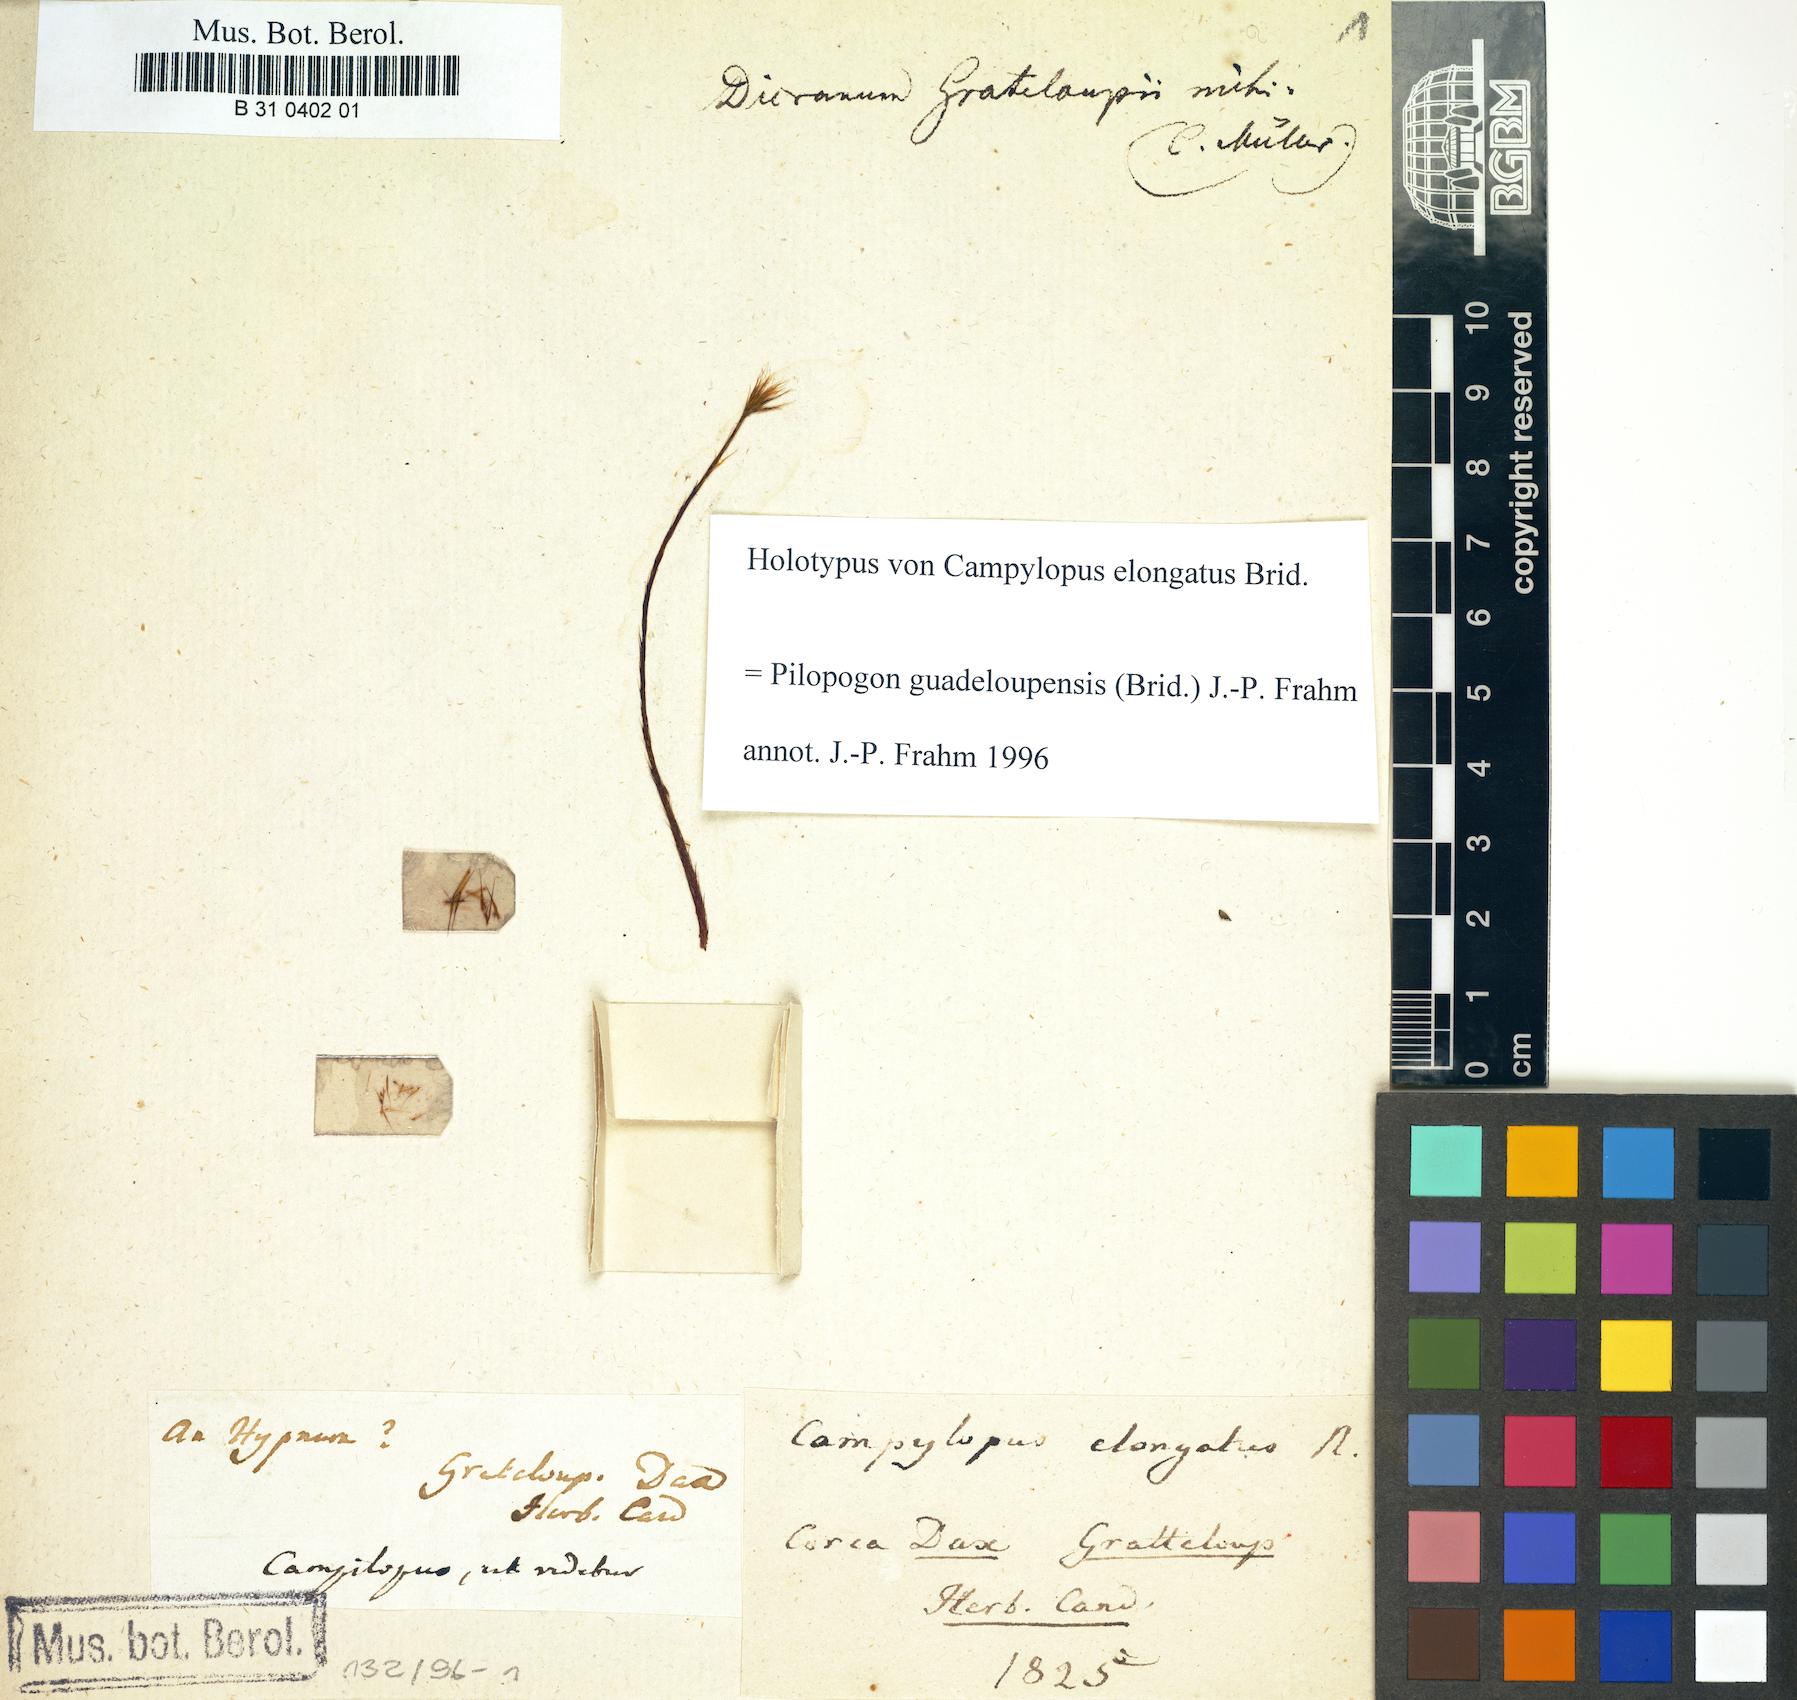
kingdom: Plantae
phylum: Bryophyta
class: Bryopsida
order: Dicranales
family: Leucobryaceae
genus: Pilopogon
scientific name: Pilopogon guadalupensis
